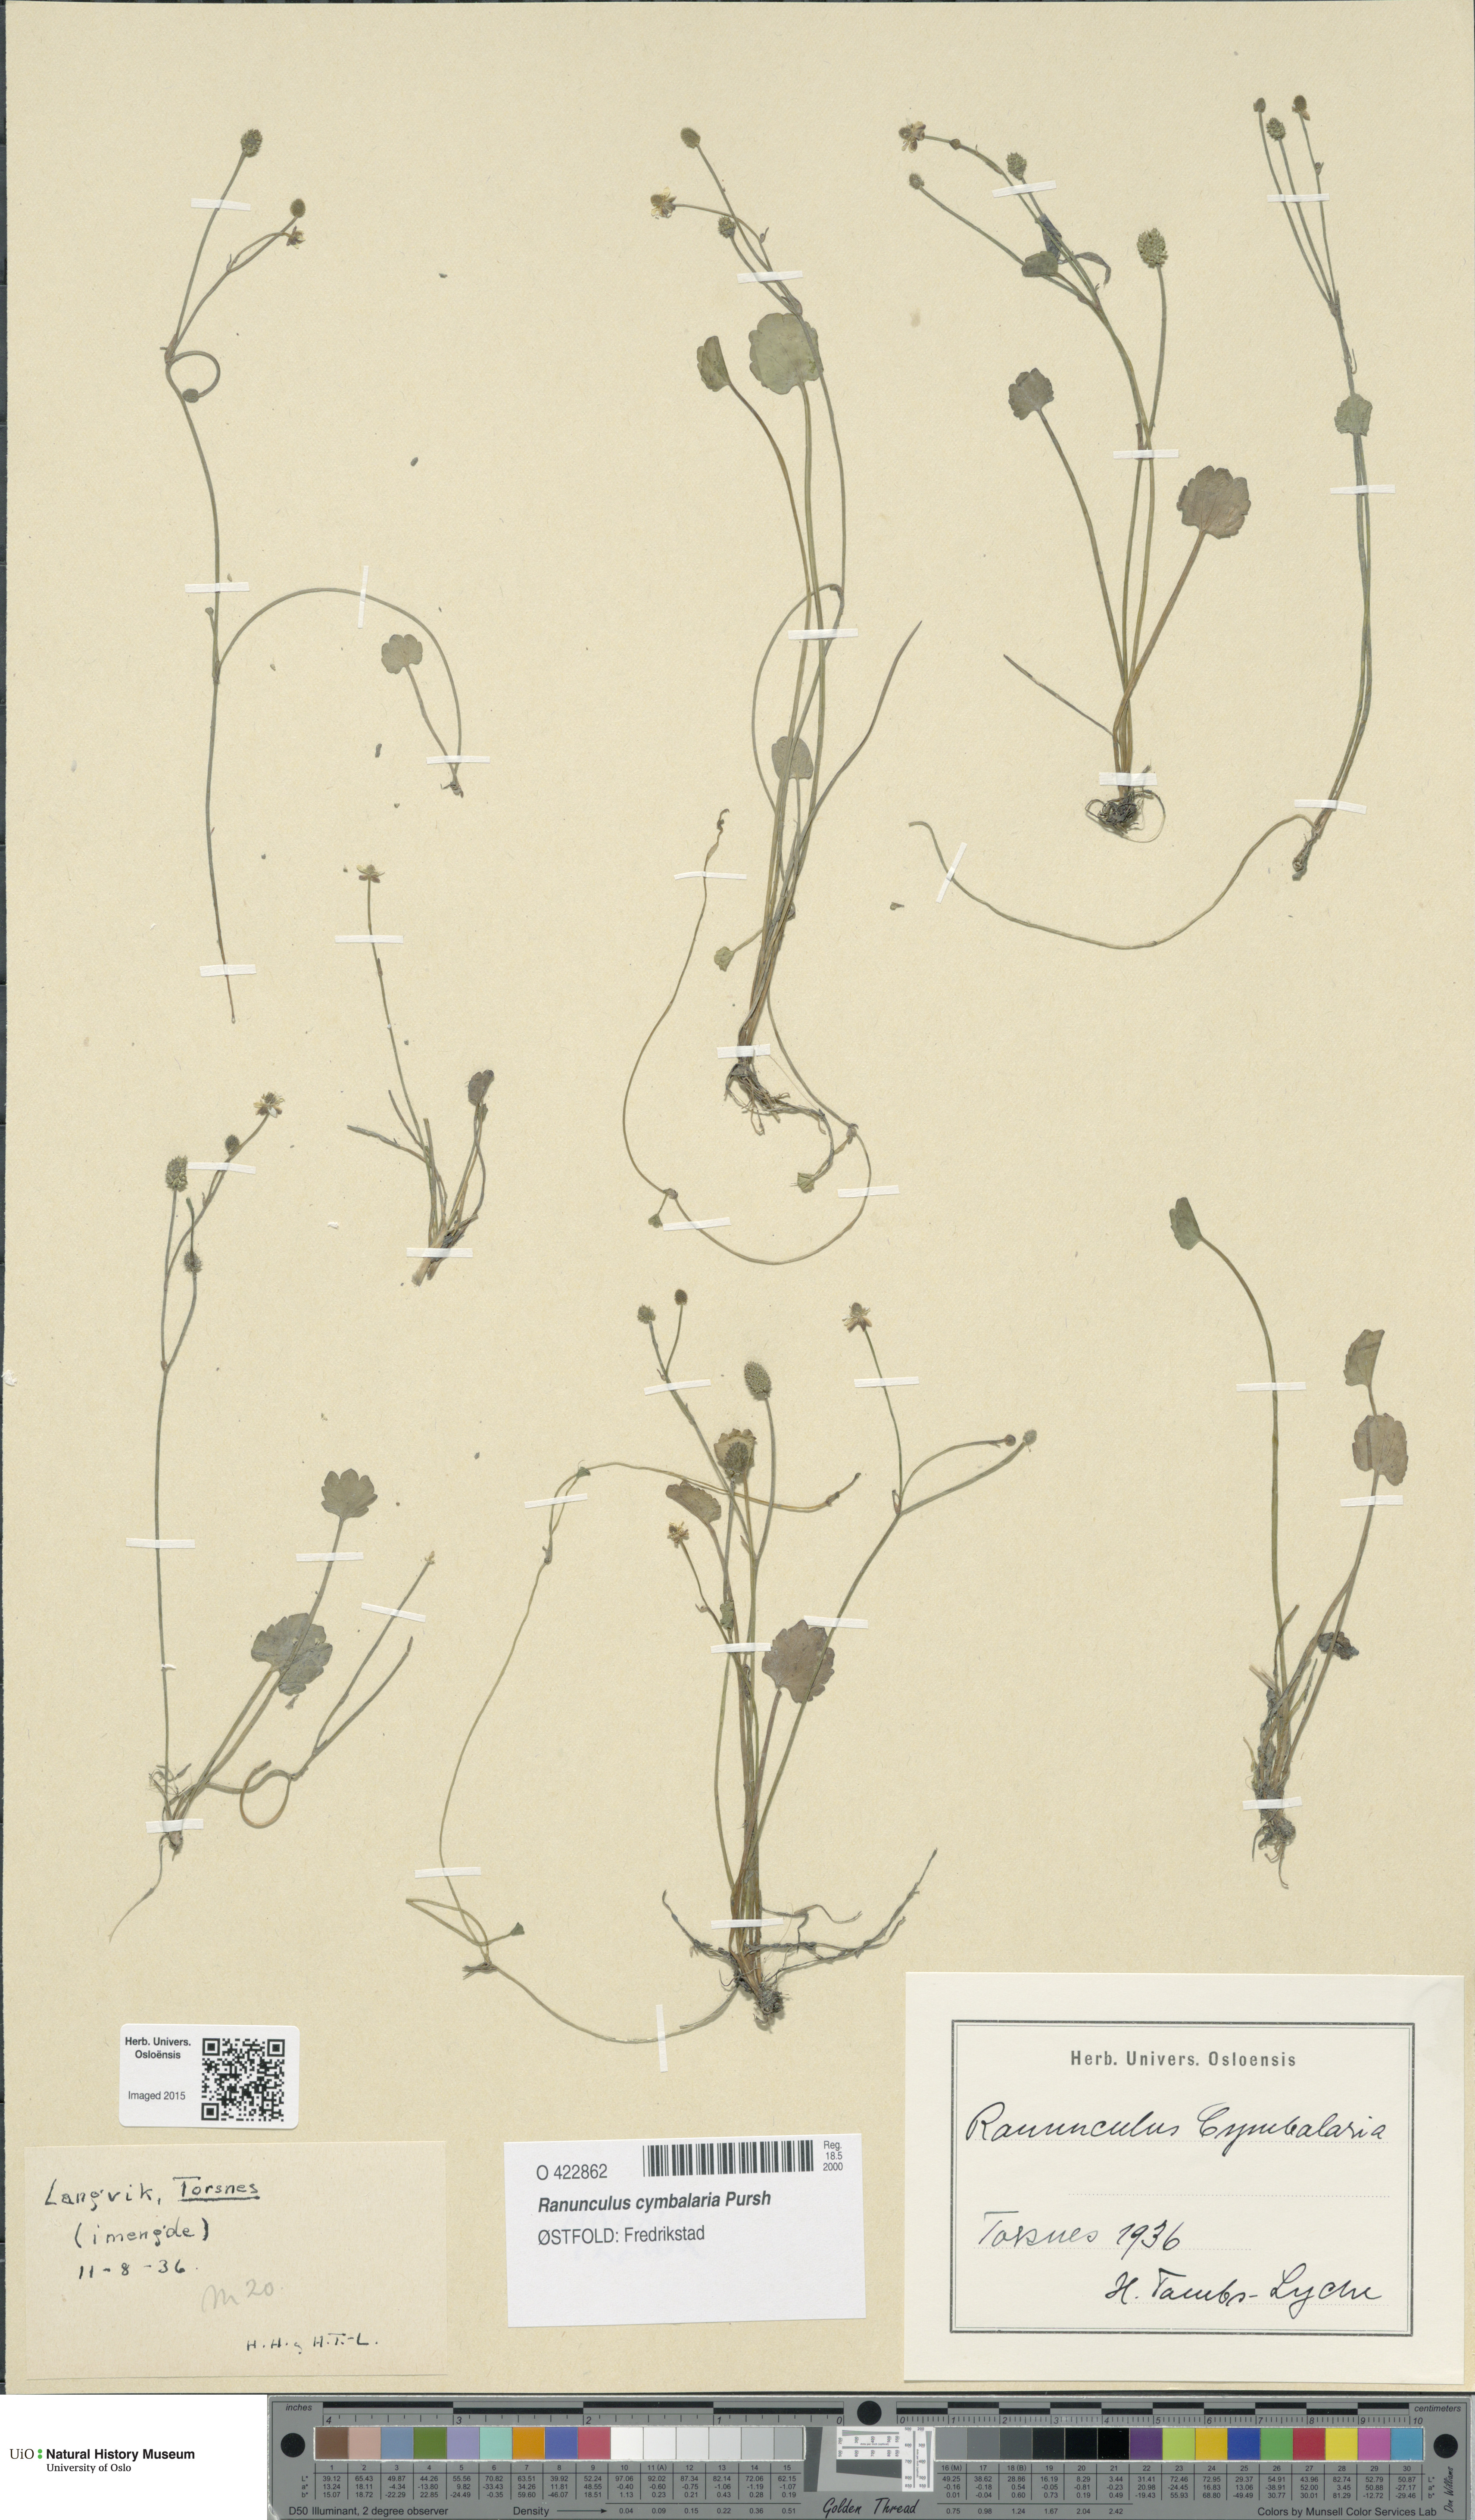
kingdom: Plantae
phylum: Tracheophyta
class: Magnoliopsida
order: Ranunculales
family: Ranunculaceae
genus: Halerpestes
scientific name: Halerpestes cymbalaria
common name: Seaside crowfoot
